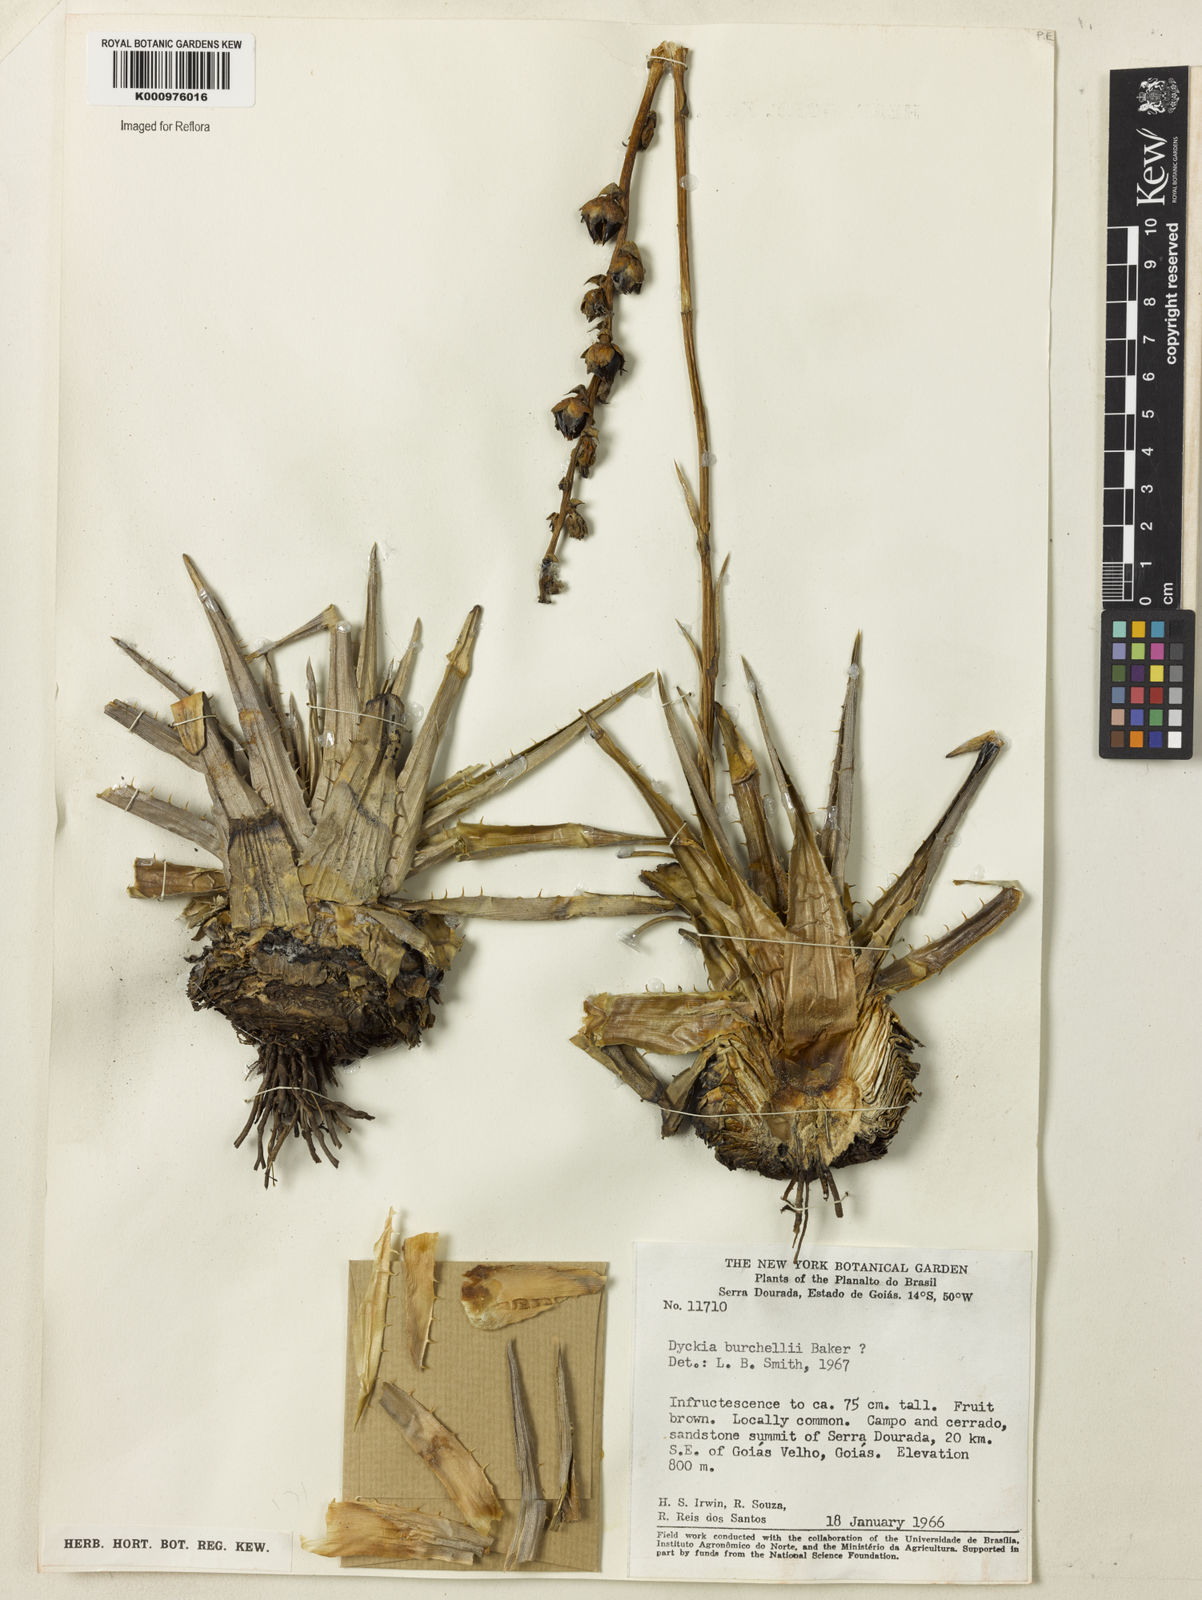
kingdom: Plantae
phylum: Tracheophyta
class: Liliopsida
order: Poales
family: Bromeliaceae
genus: Dyckia
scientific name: Dyckia burchellii
